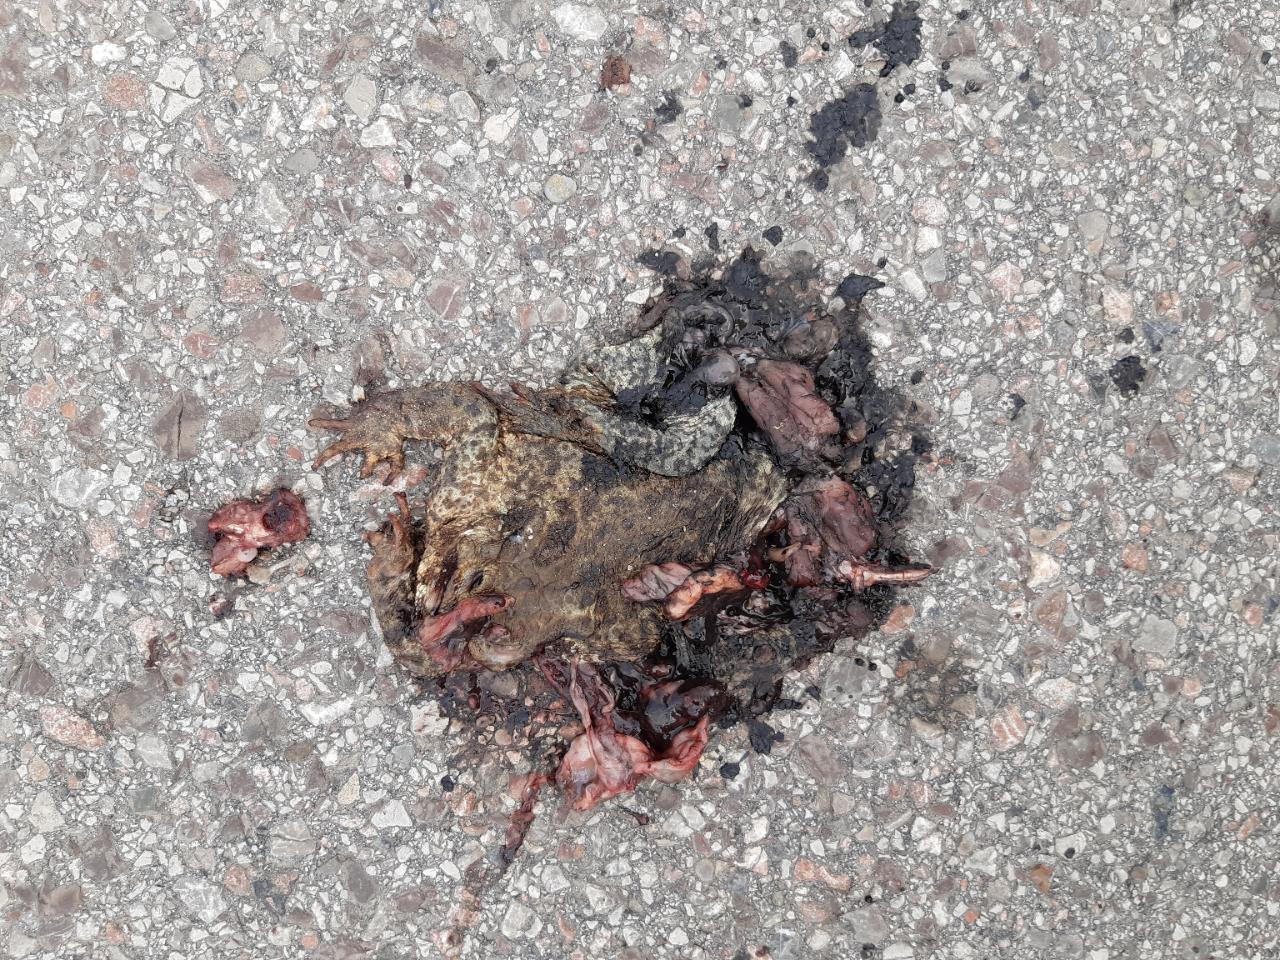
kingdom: Animalia
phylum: Chordata
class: Amphibia
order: Anura
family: Bufonidae
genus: Bufo
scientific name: Bufo bufo
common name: Common toad
